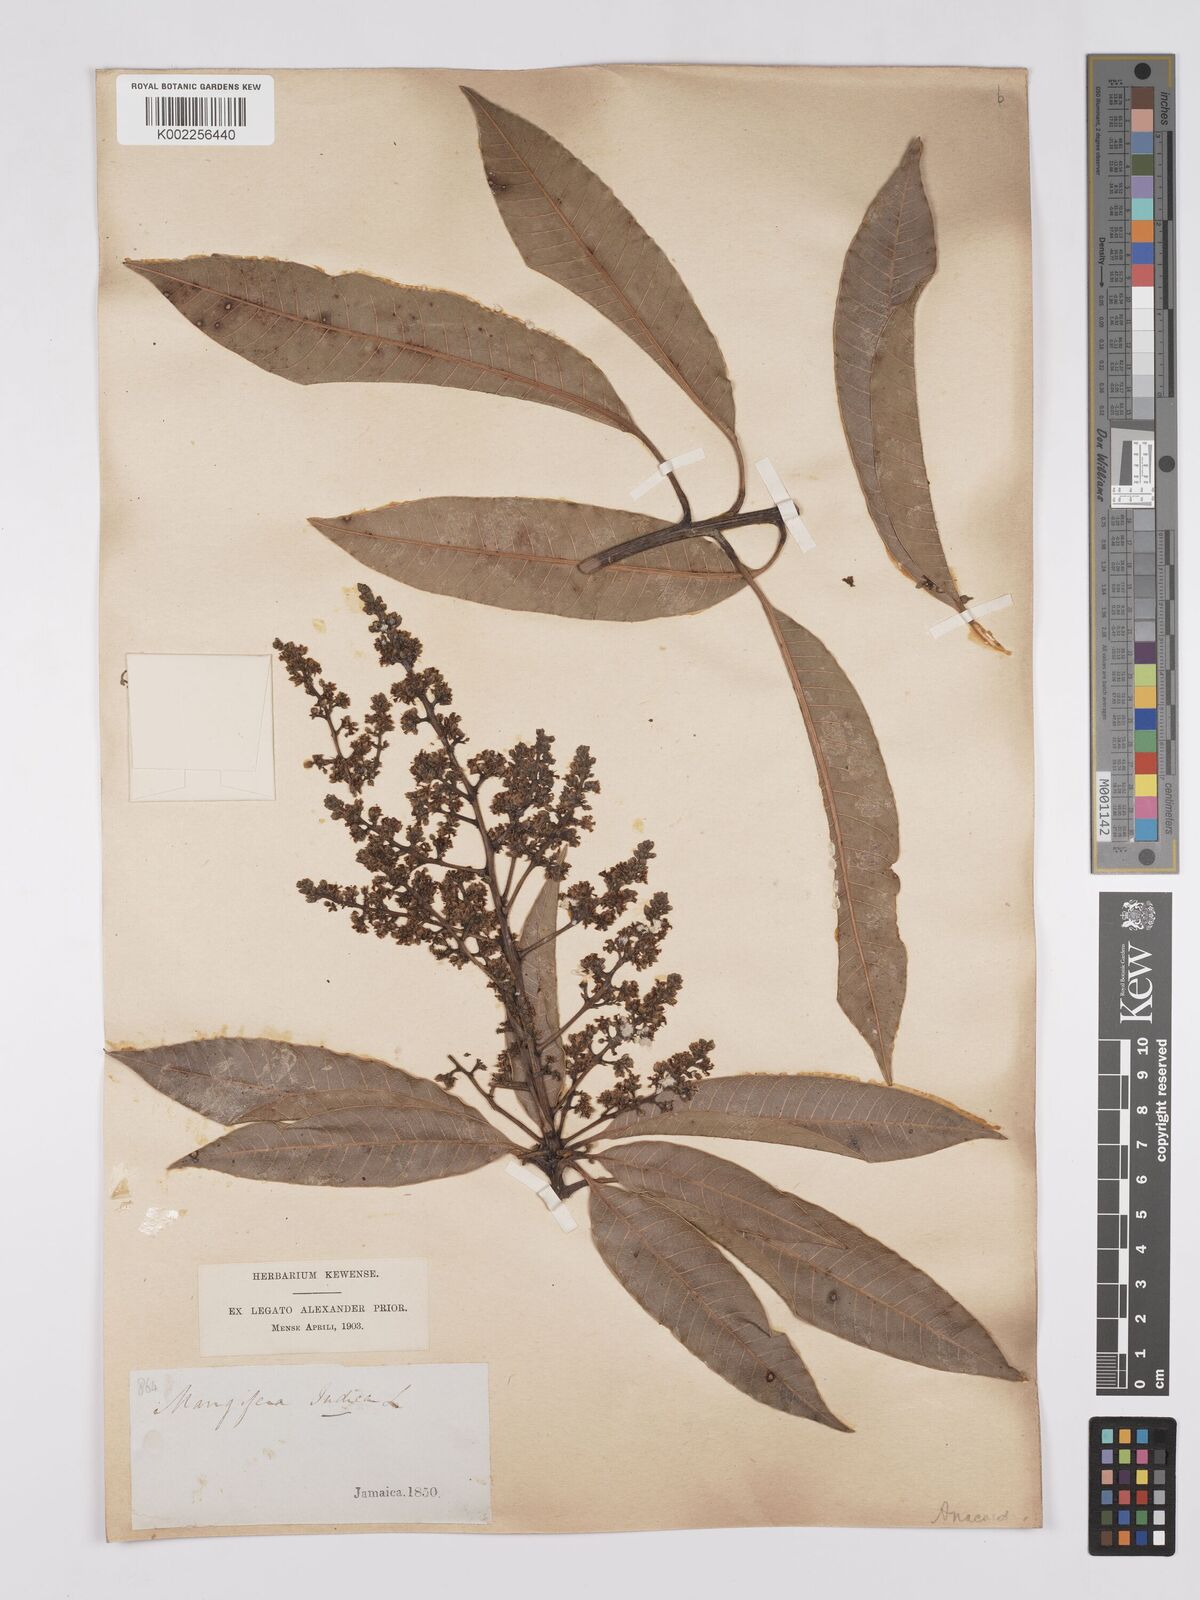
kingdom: Plantae
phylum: Tracheophyta
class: Magnoliopsida
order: Sapindales
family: Anacardiaceae
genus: Mangifera
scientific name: Mangifera indica
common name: Mango
